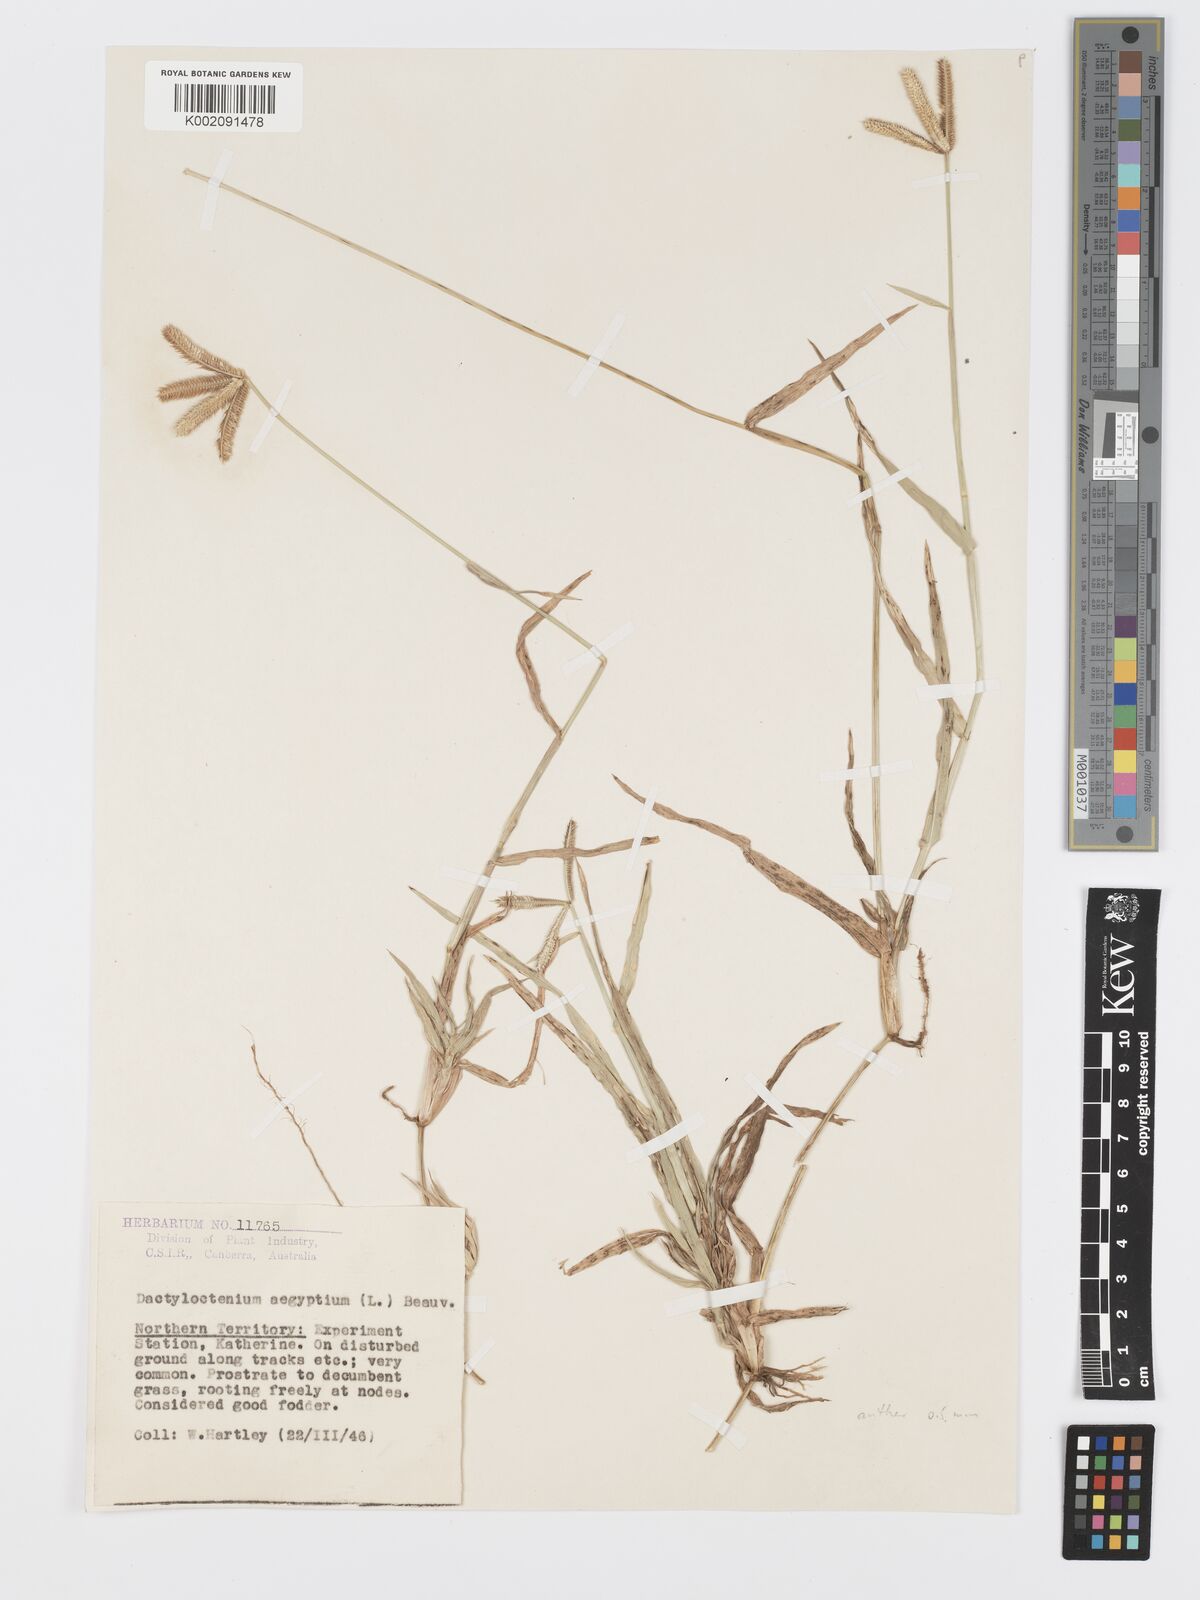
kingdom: Plantae
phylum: Tracheophyta
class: Liliopsida
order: Poales
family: Poaceae
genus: Dactyloctenium
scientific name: Dactyloctenium aegyptium
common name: Egyptian grass
